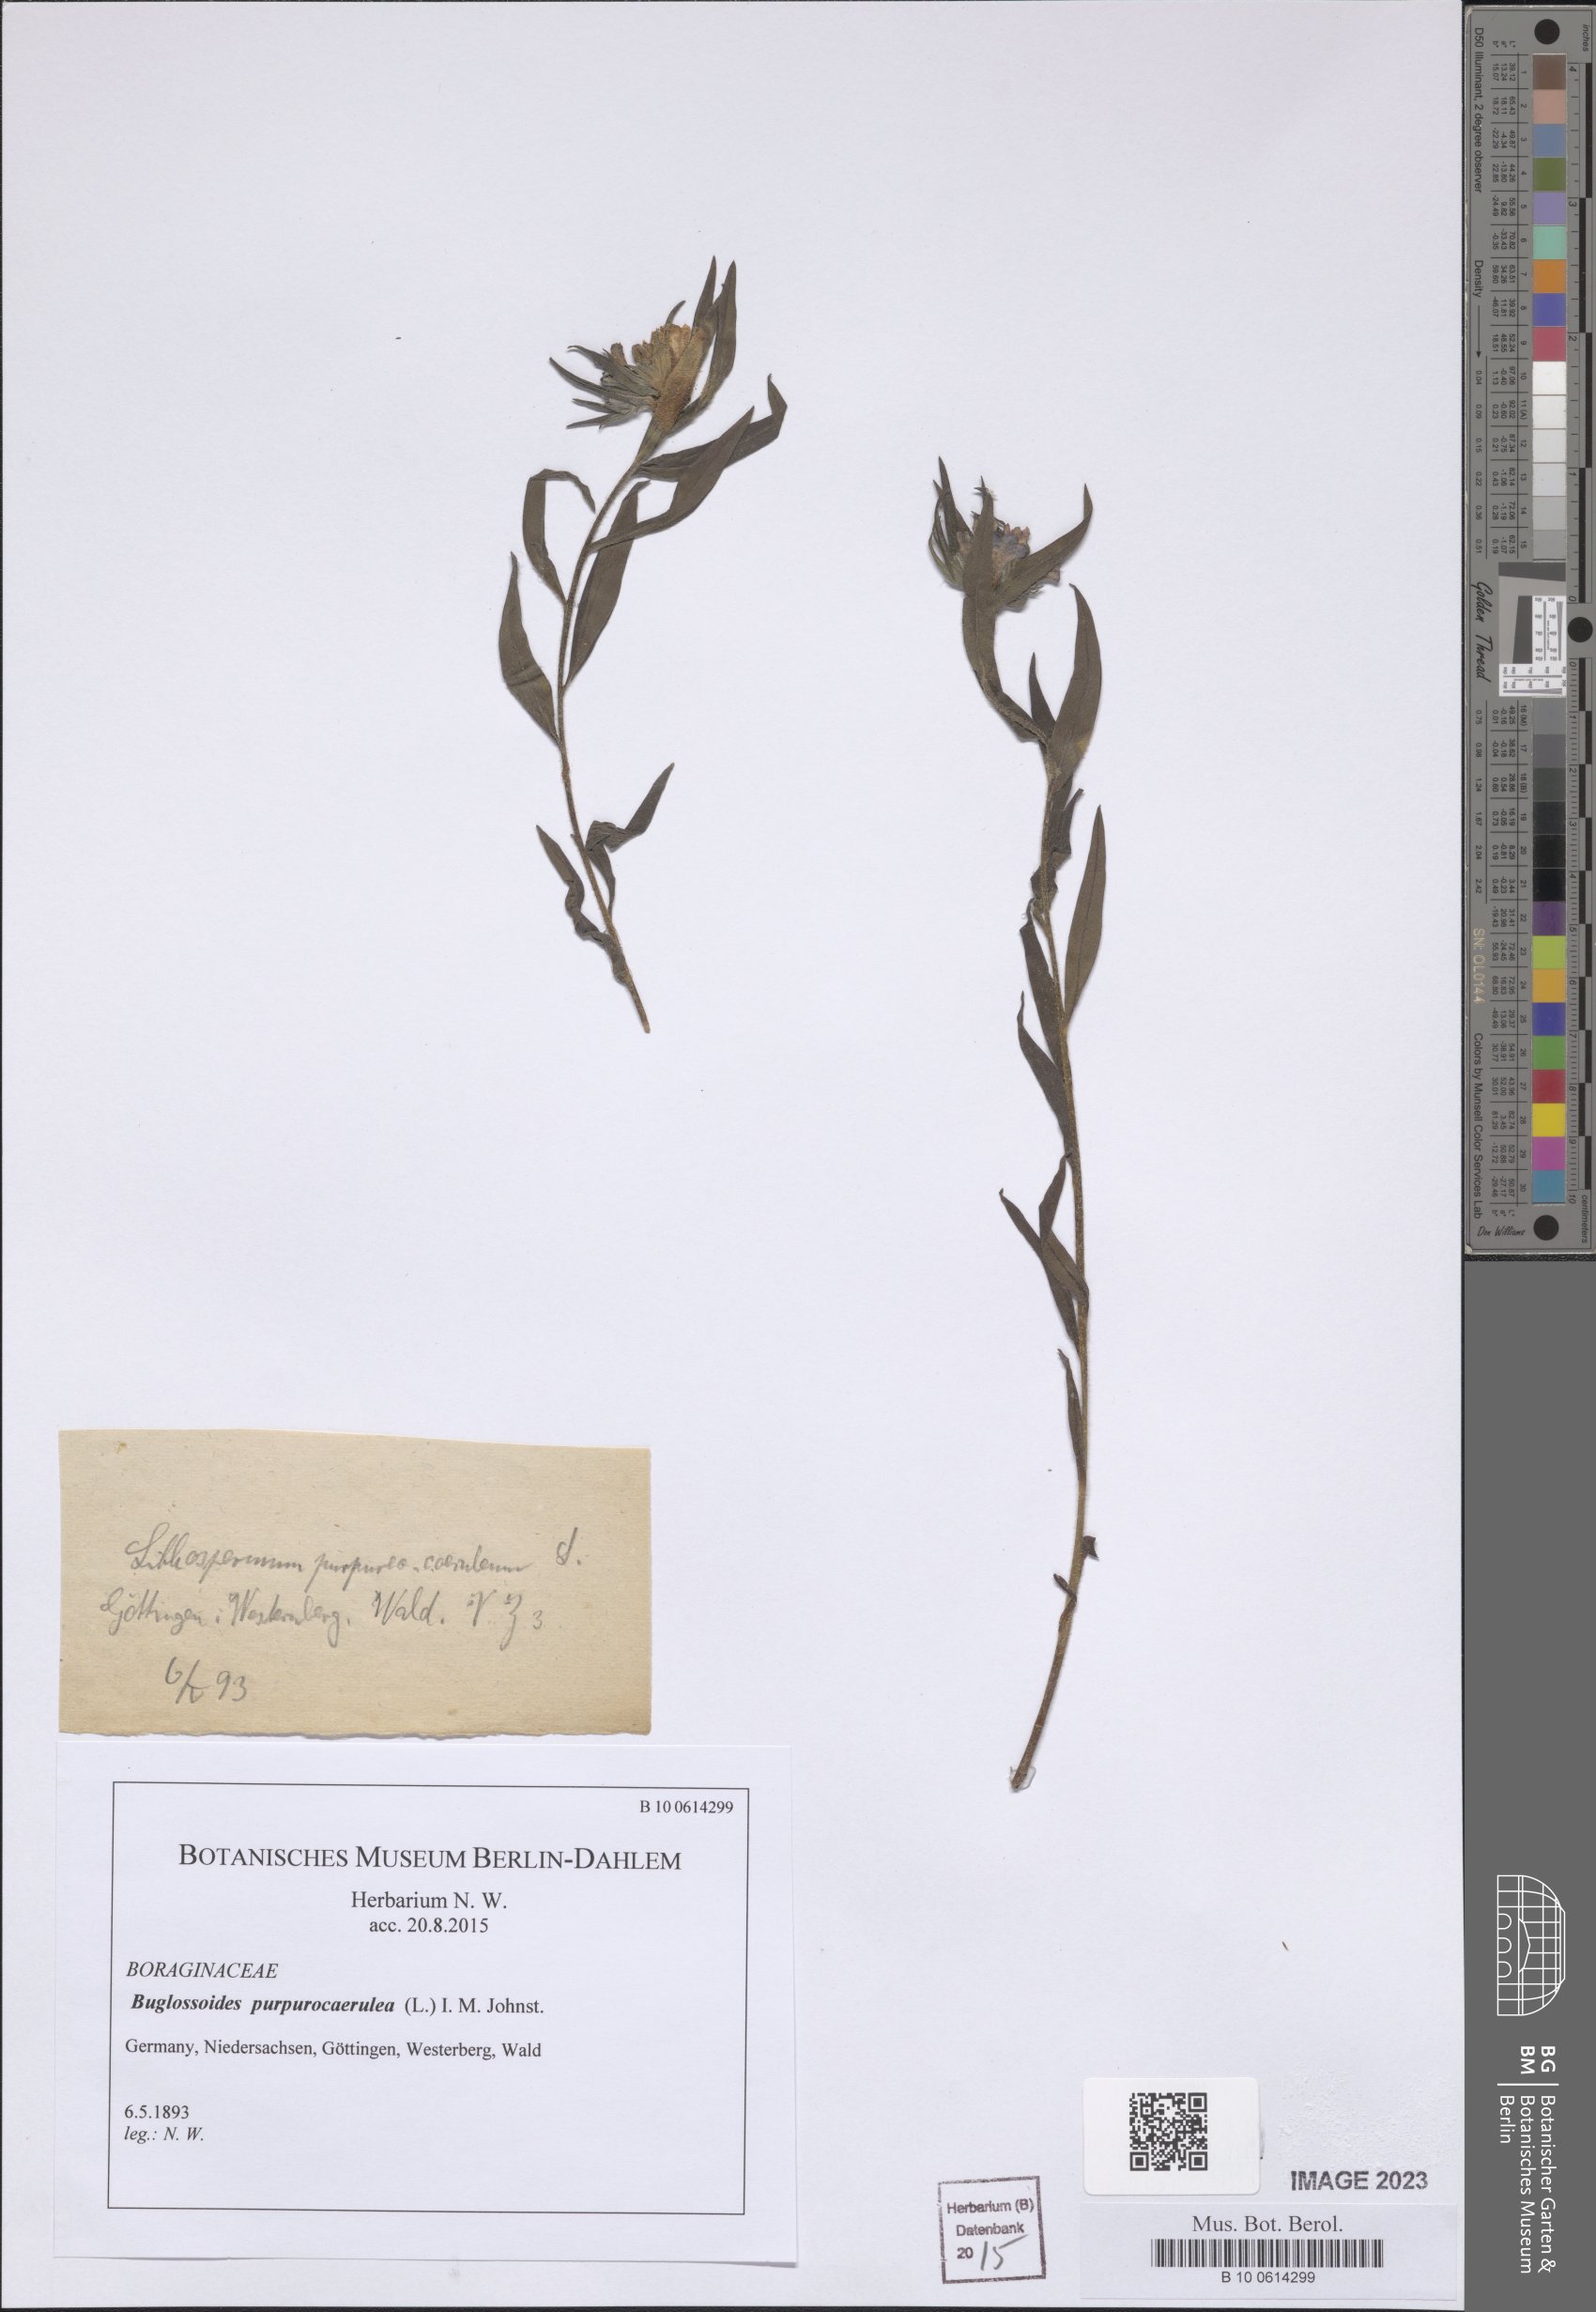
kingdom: Plantae
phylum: Tracheophyta
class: Magnoliopsida
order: Boraginales
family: Boraginaceae
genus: Aegonychon
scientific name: Aegonychon purpurocaeruleum
